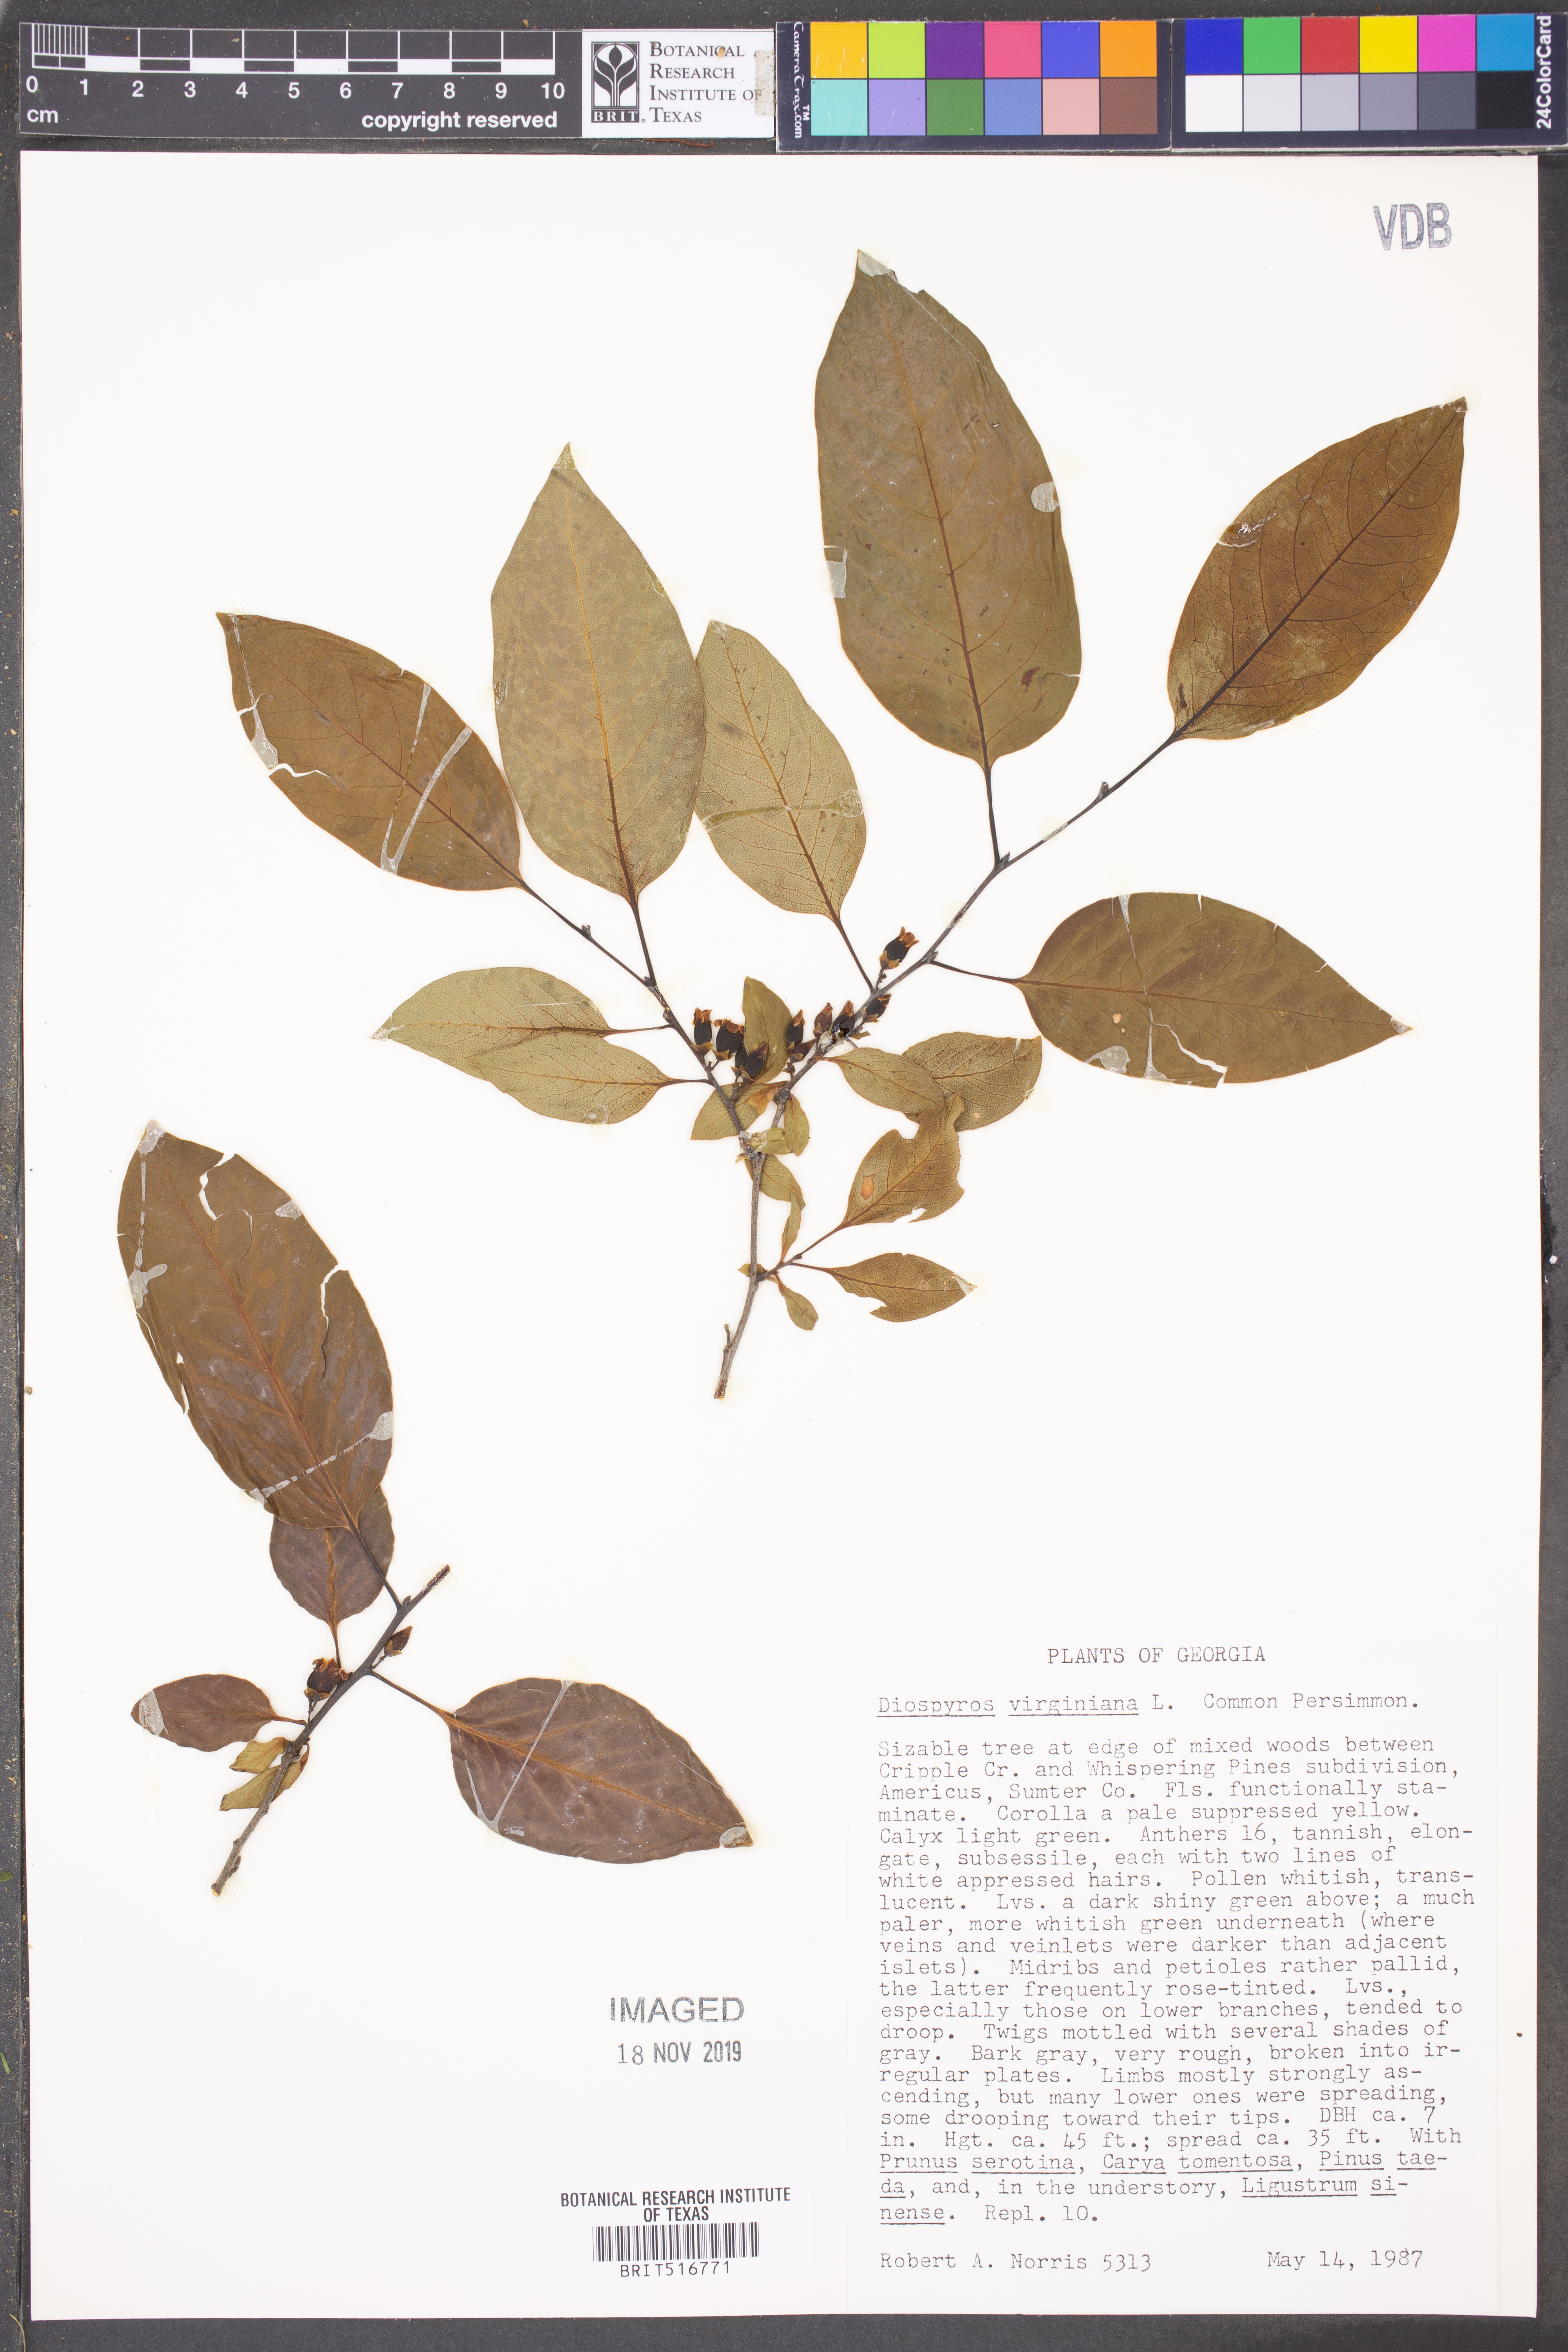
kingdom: Plantae
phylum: Tracheophyta
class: Magnoliopsida
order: Ericales
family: Ebenaceae
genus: Diospyros
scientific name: Diospyros virginiana
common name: Persimmon
